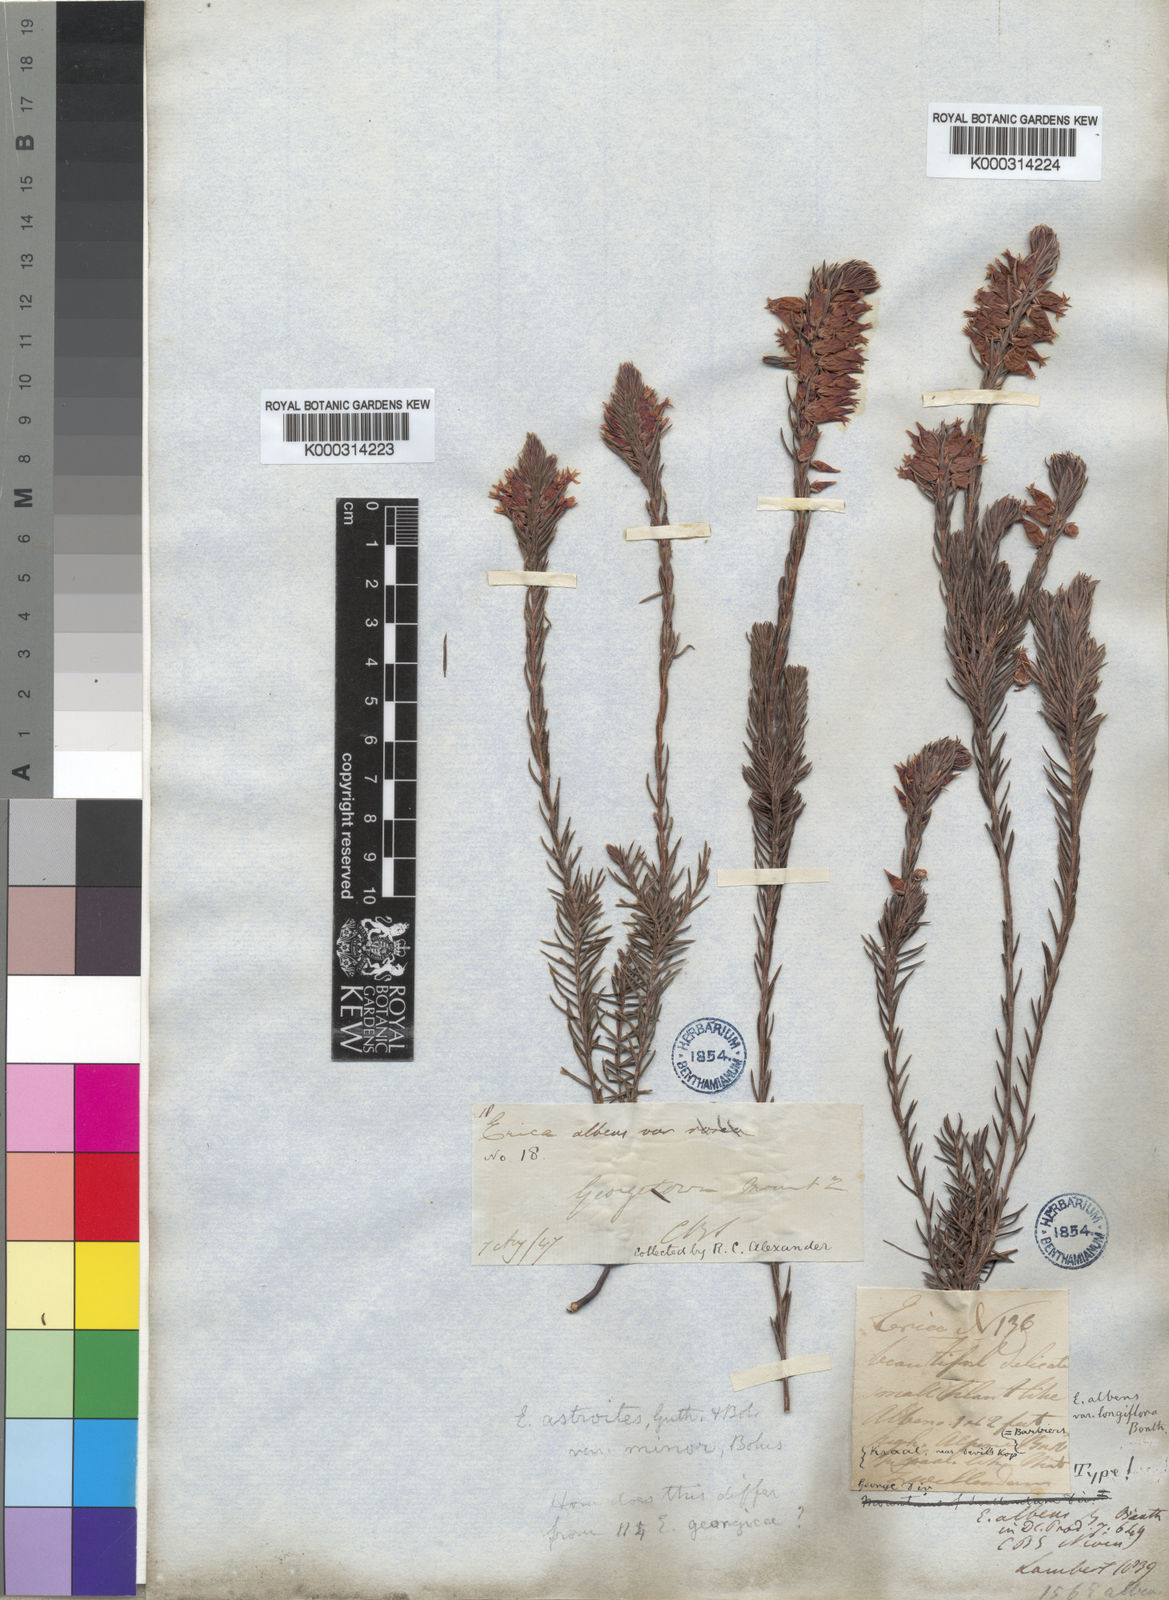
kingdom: Plantae
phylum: Tracheophyta
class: Magnoliopsida
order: Ericales
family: Ericaceae
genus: Erica
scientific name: Erica astroites
